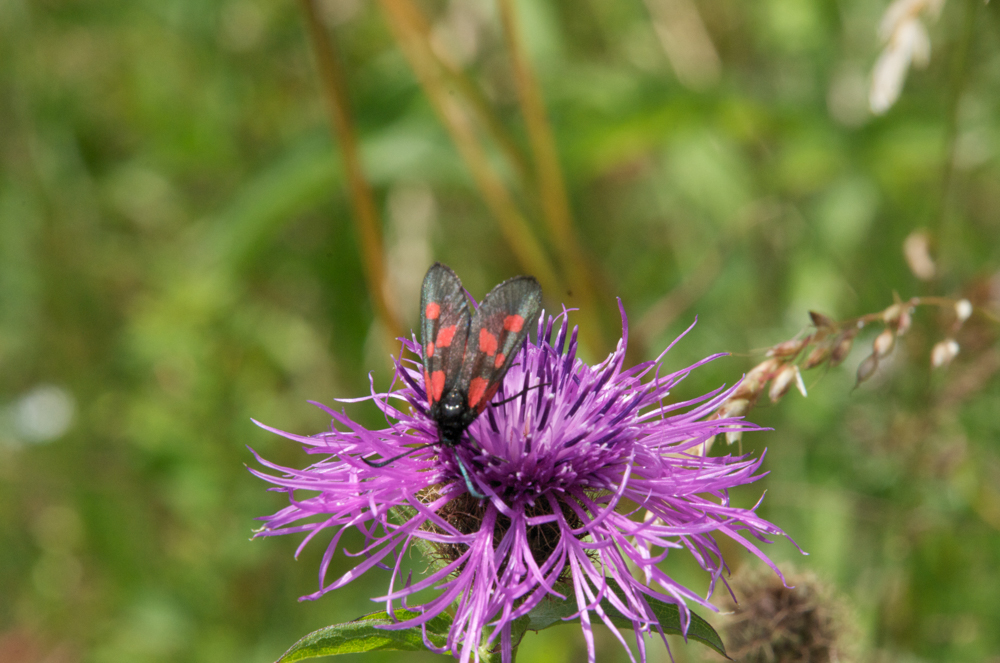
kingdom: Animalia
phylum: Arthropoda
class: Insecta
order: Lepidoptera
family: Zygaenidae
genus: Zygaena
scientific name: Zygaena viciae
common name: New forest burnet
